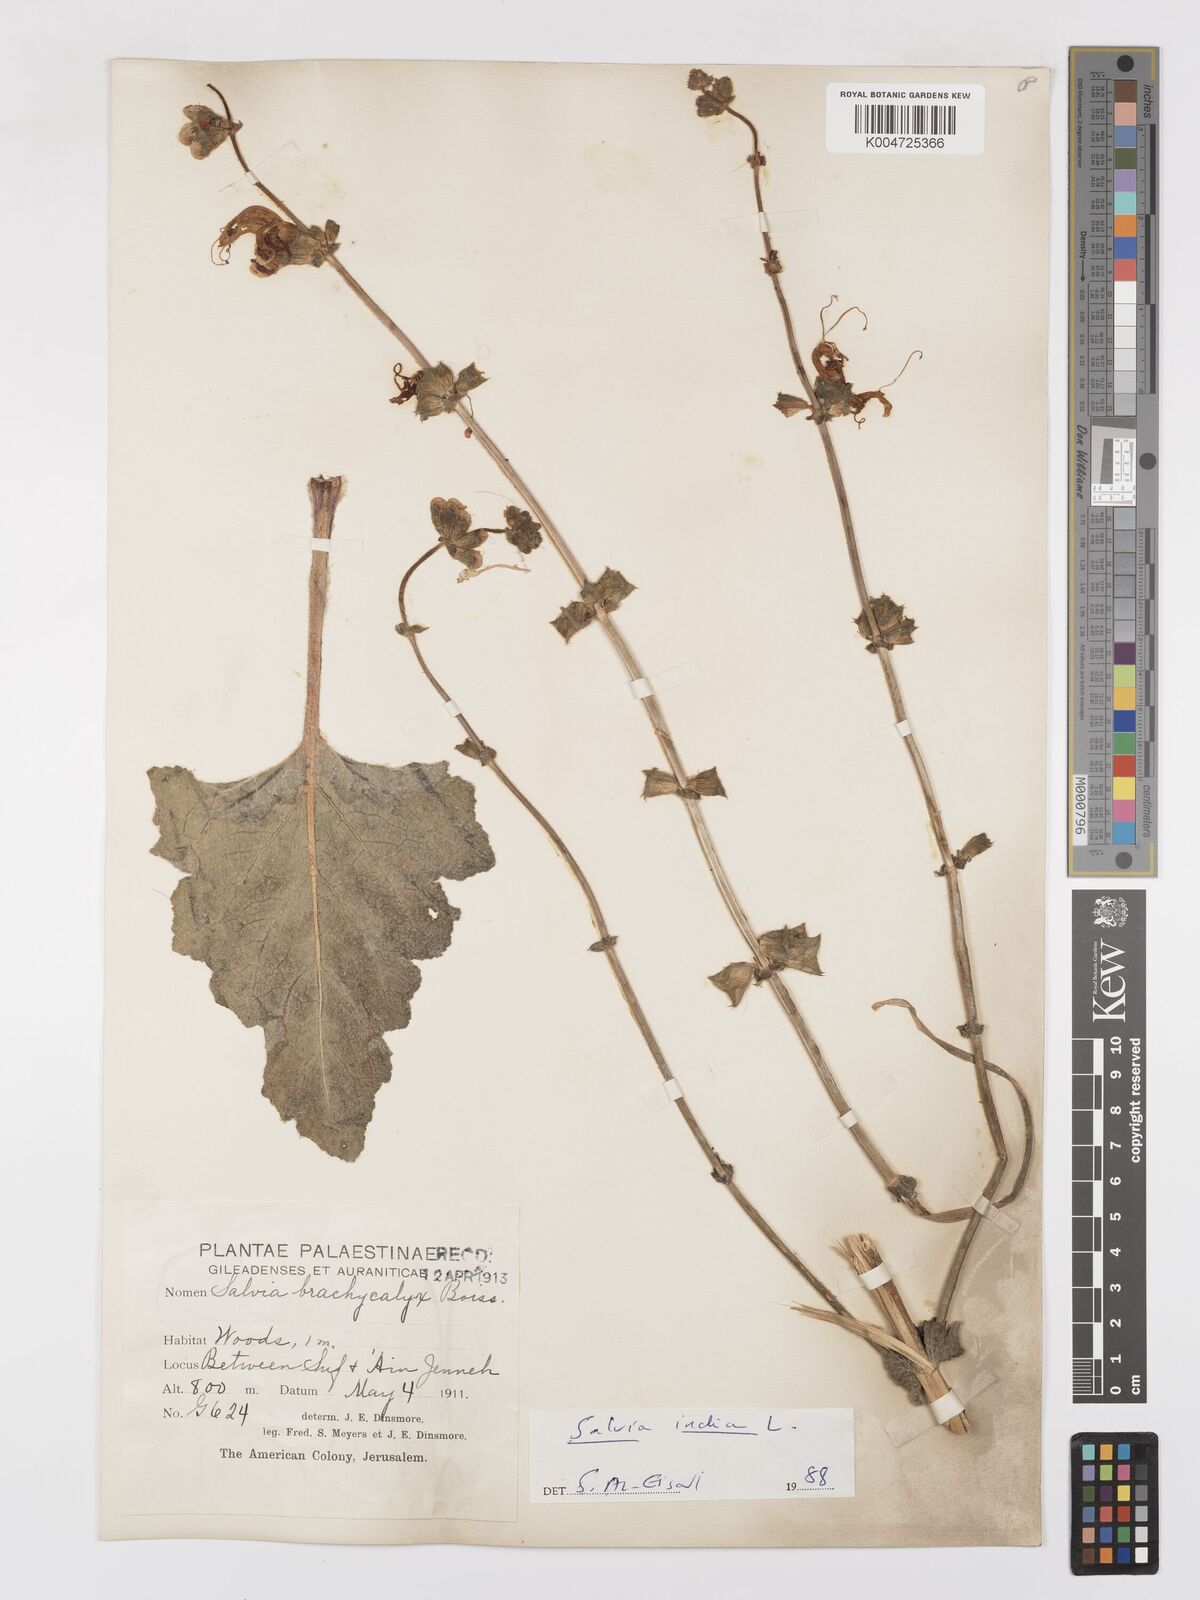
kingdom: Plantae
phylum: Tracheophyta
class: Magnoliopsida
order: Lamiales
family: Lamiaceae
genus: Salvia
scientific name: Salvia indica
